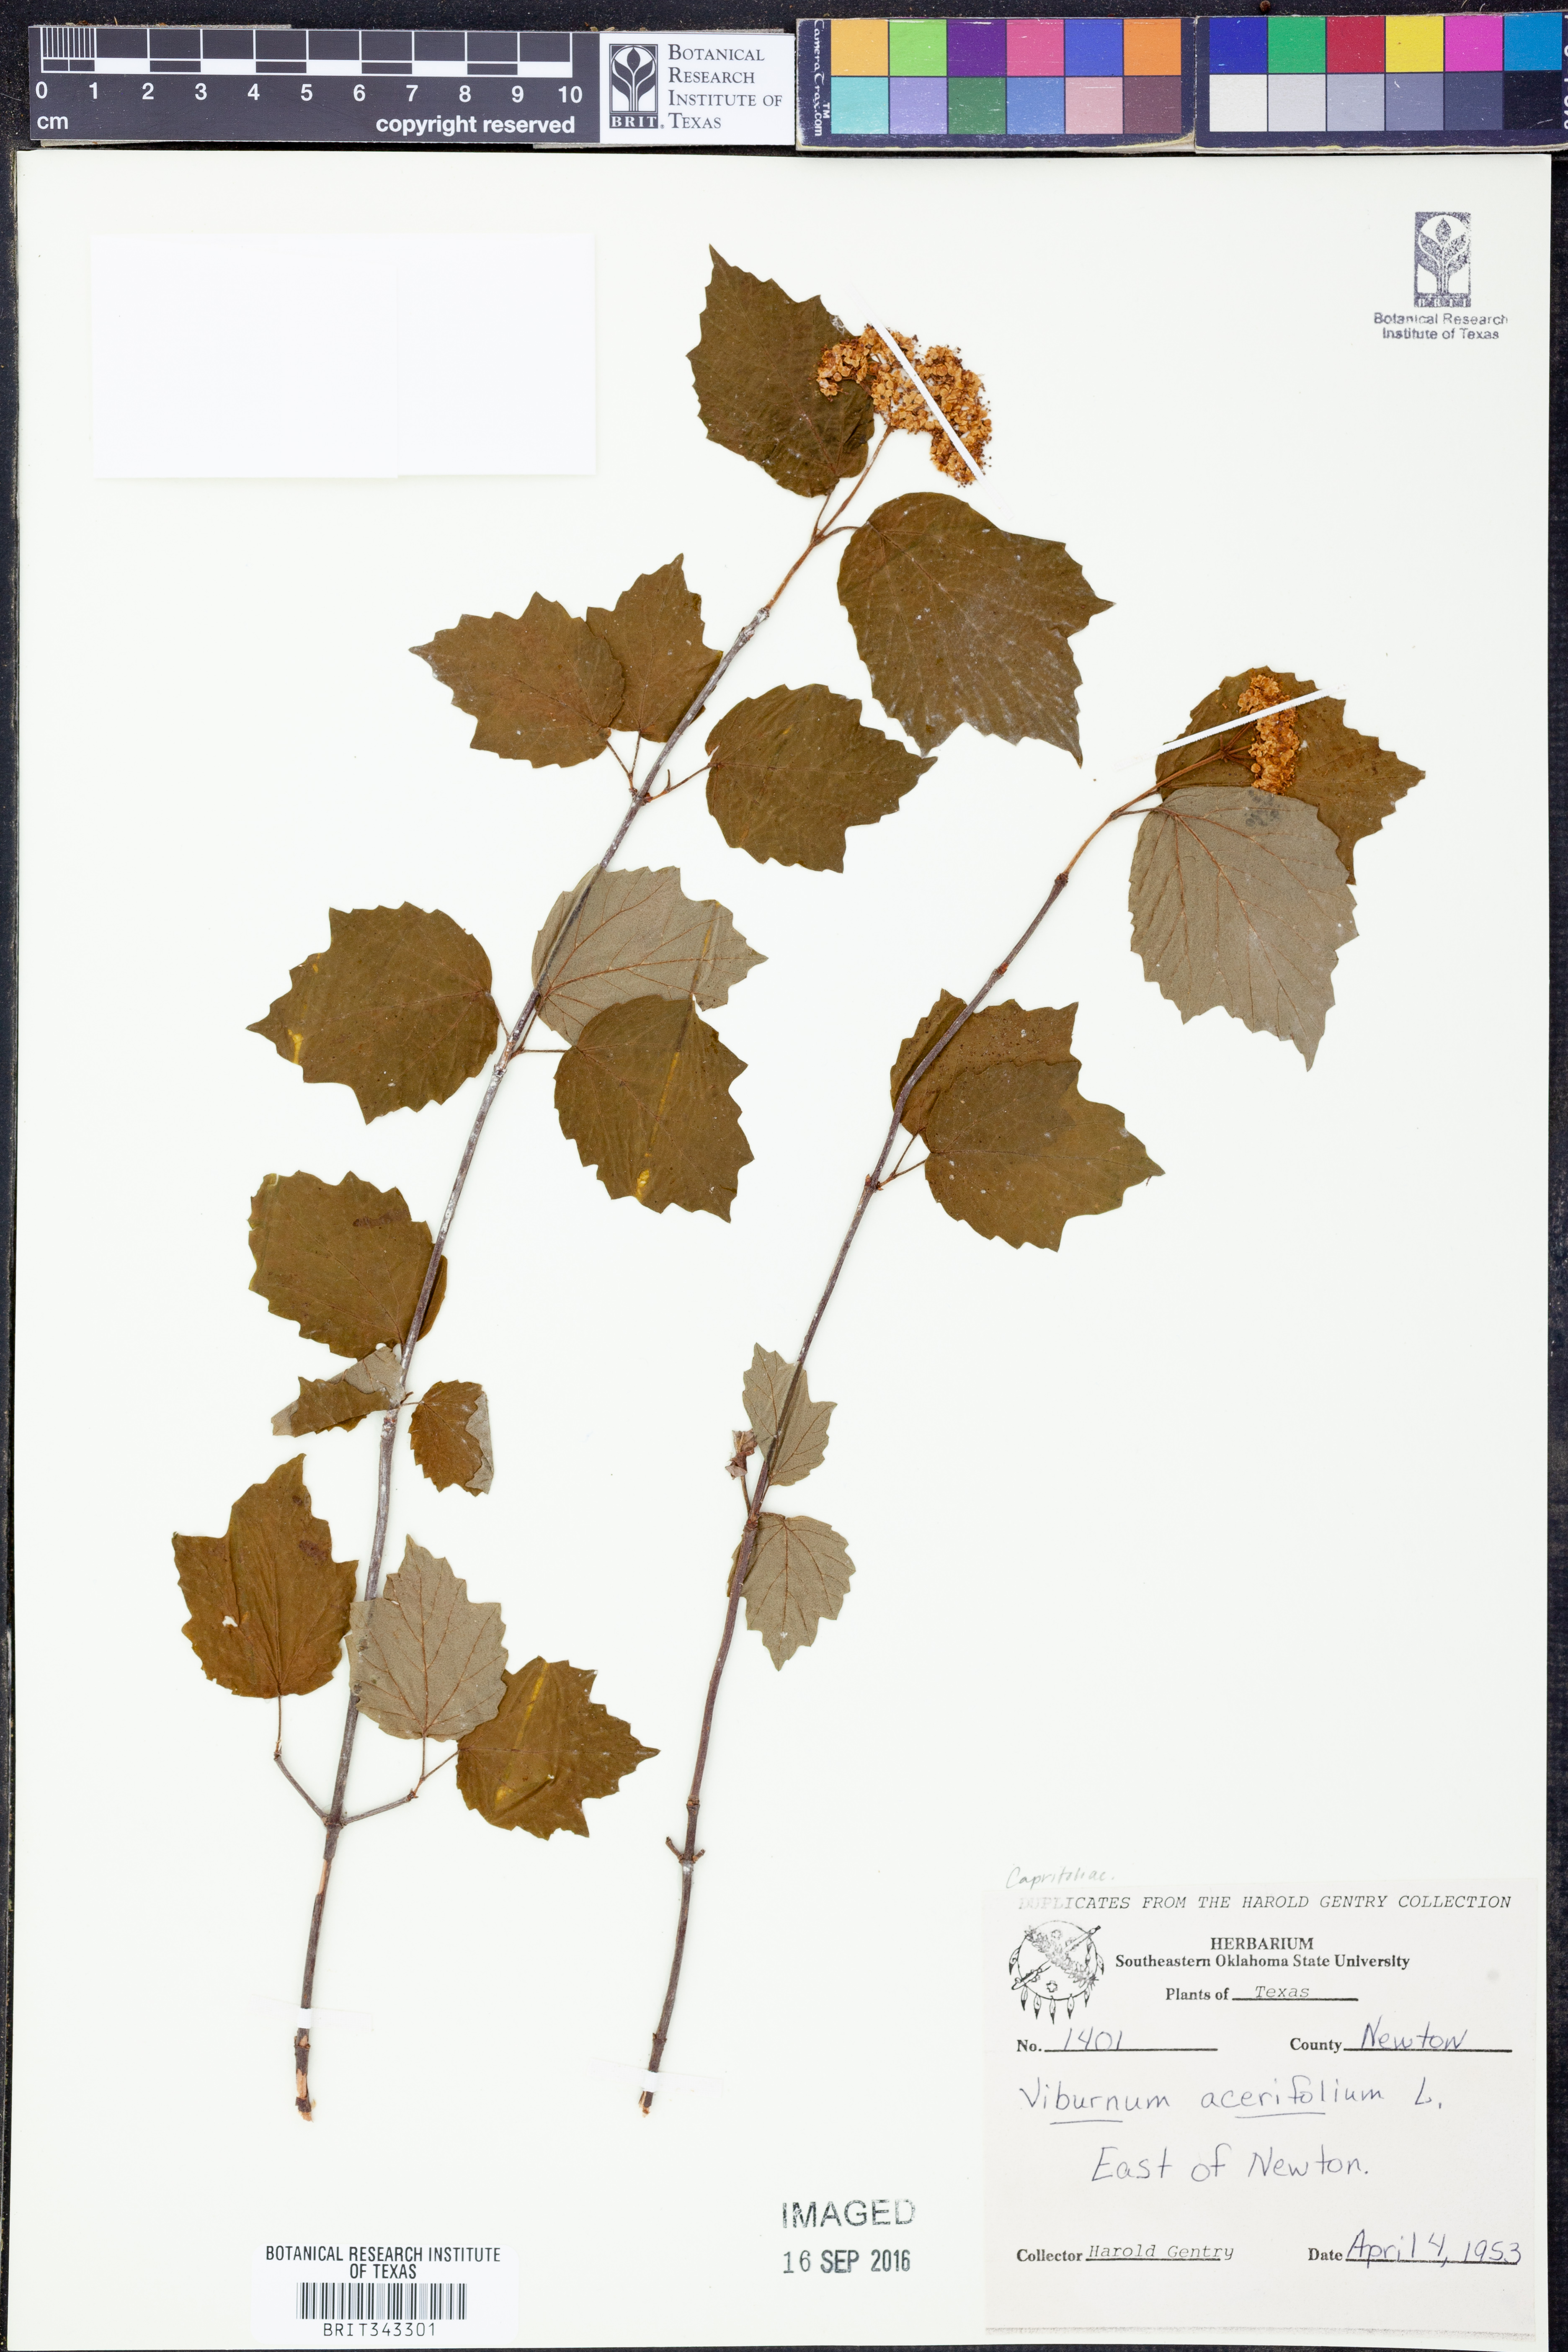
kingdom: Plantae
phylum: Tracheophyta
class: Magnoliopsida
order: Dipsacales
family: Viburnaceae
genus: Viburnum
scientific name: Viburnum acerifolium
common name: Dockmackie
